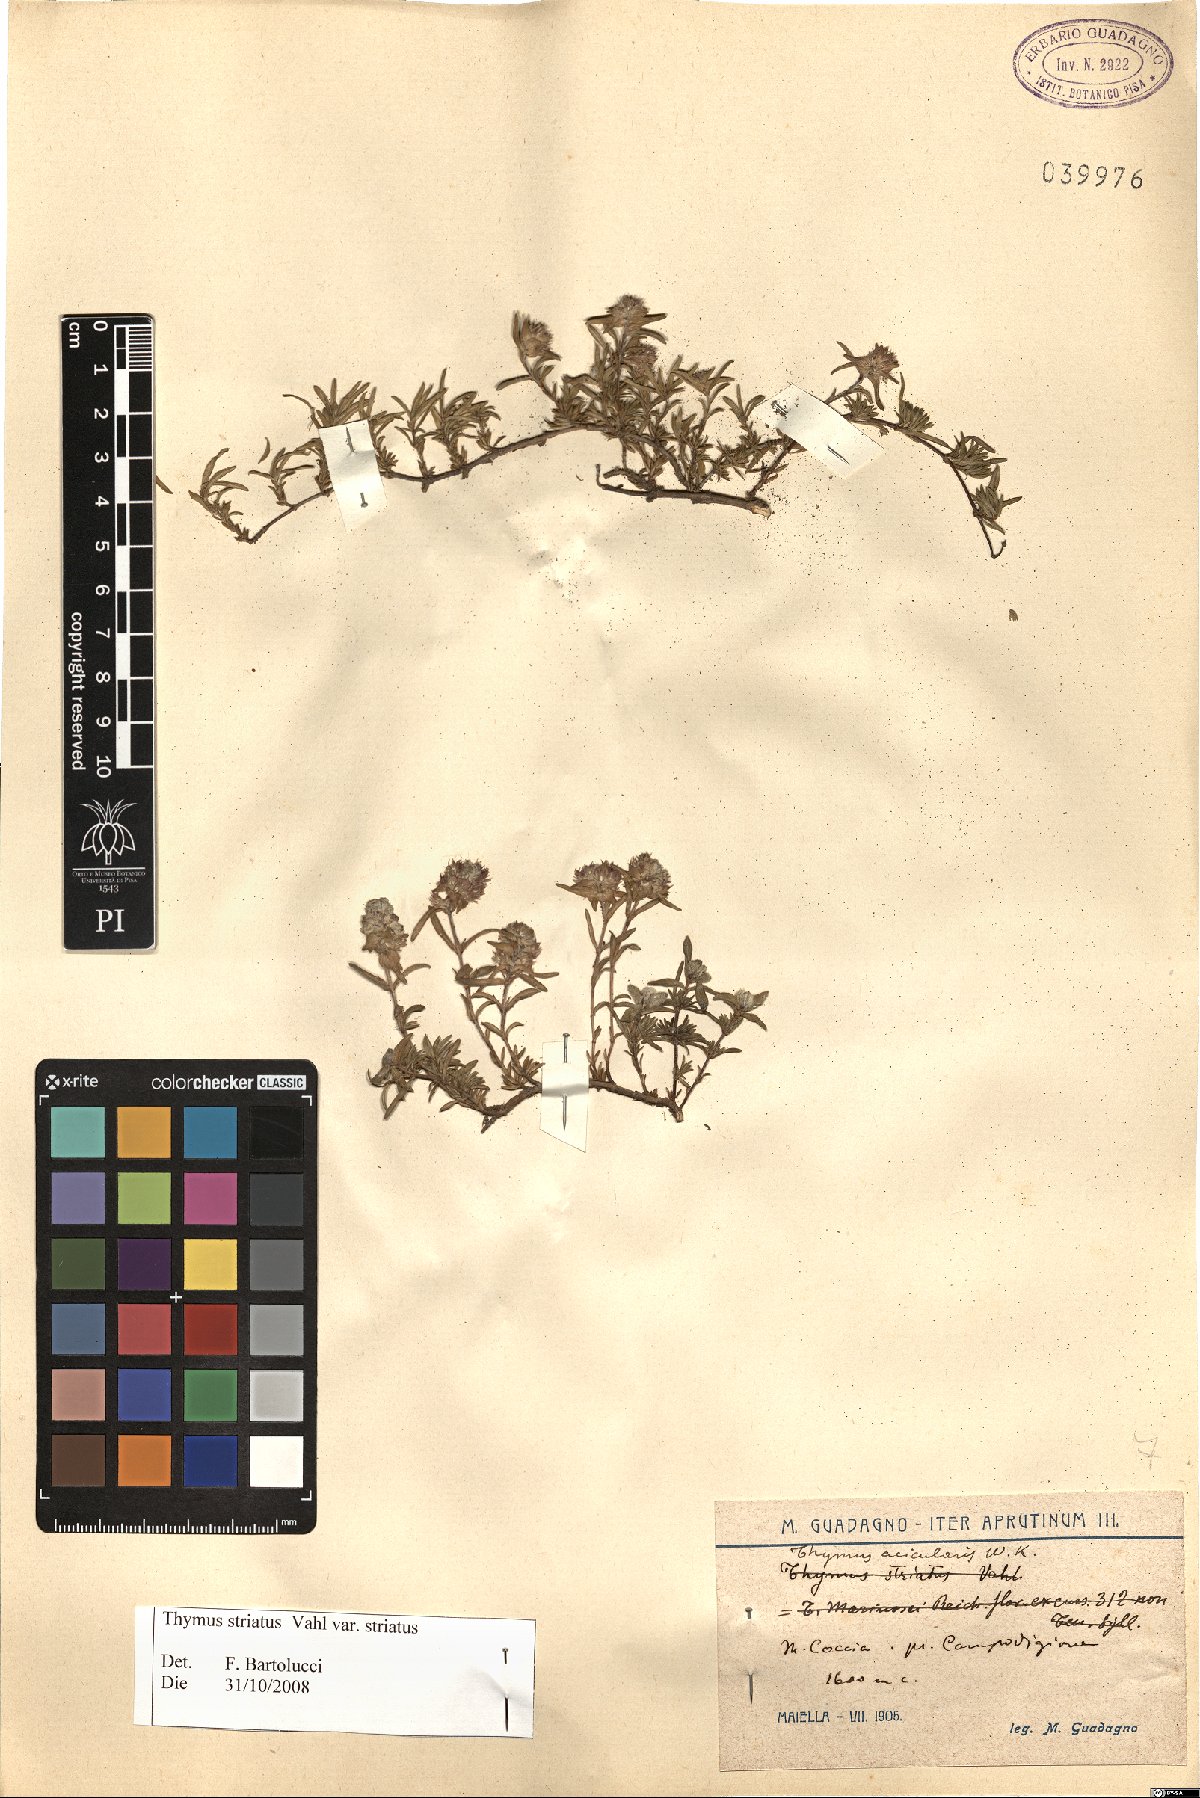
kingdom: Plantae
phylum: Tracheophyta
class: Magnoliopsida
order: Lamiales
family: Lamiaceae
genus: Thymus
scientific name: Thymus striatus
